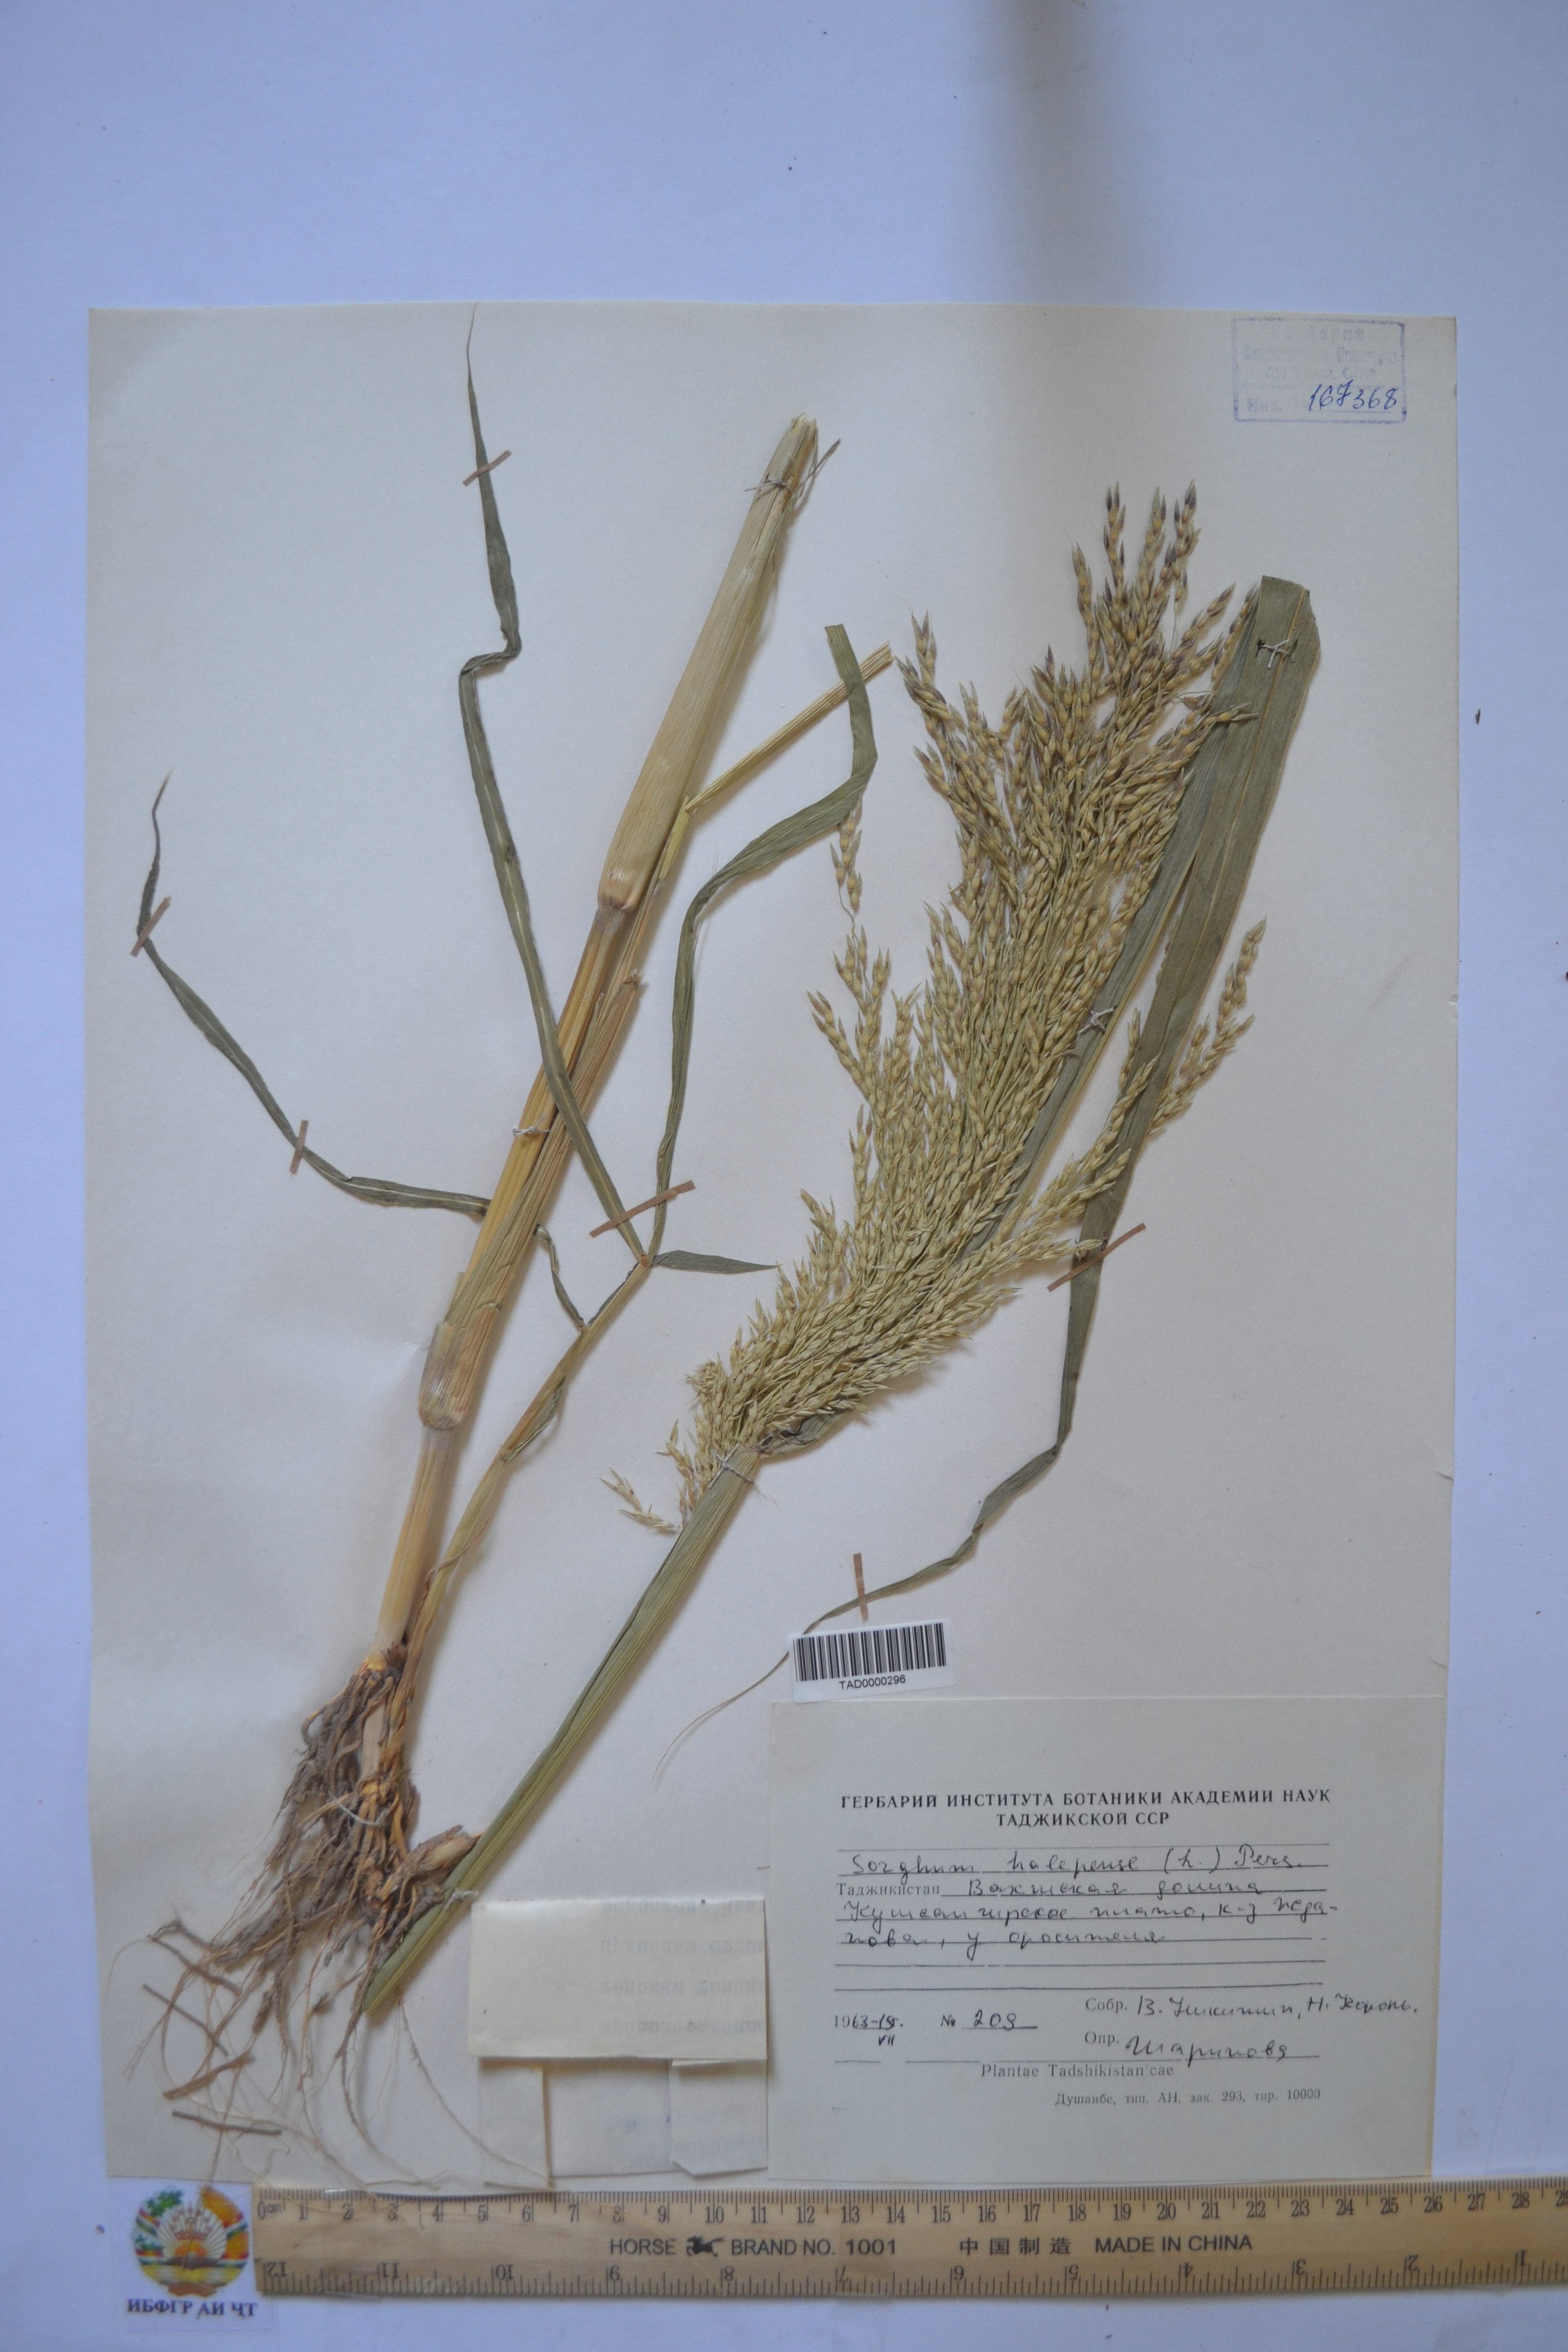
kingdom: Plantae
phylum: Tracheophyta
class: Liliopsida
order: Poales
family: Poaceae
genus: Sorghum
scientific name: Sorghum halepense
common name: Johnson-grass
